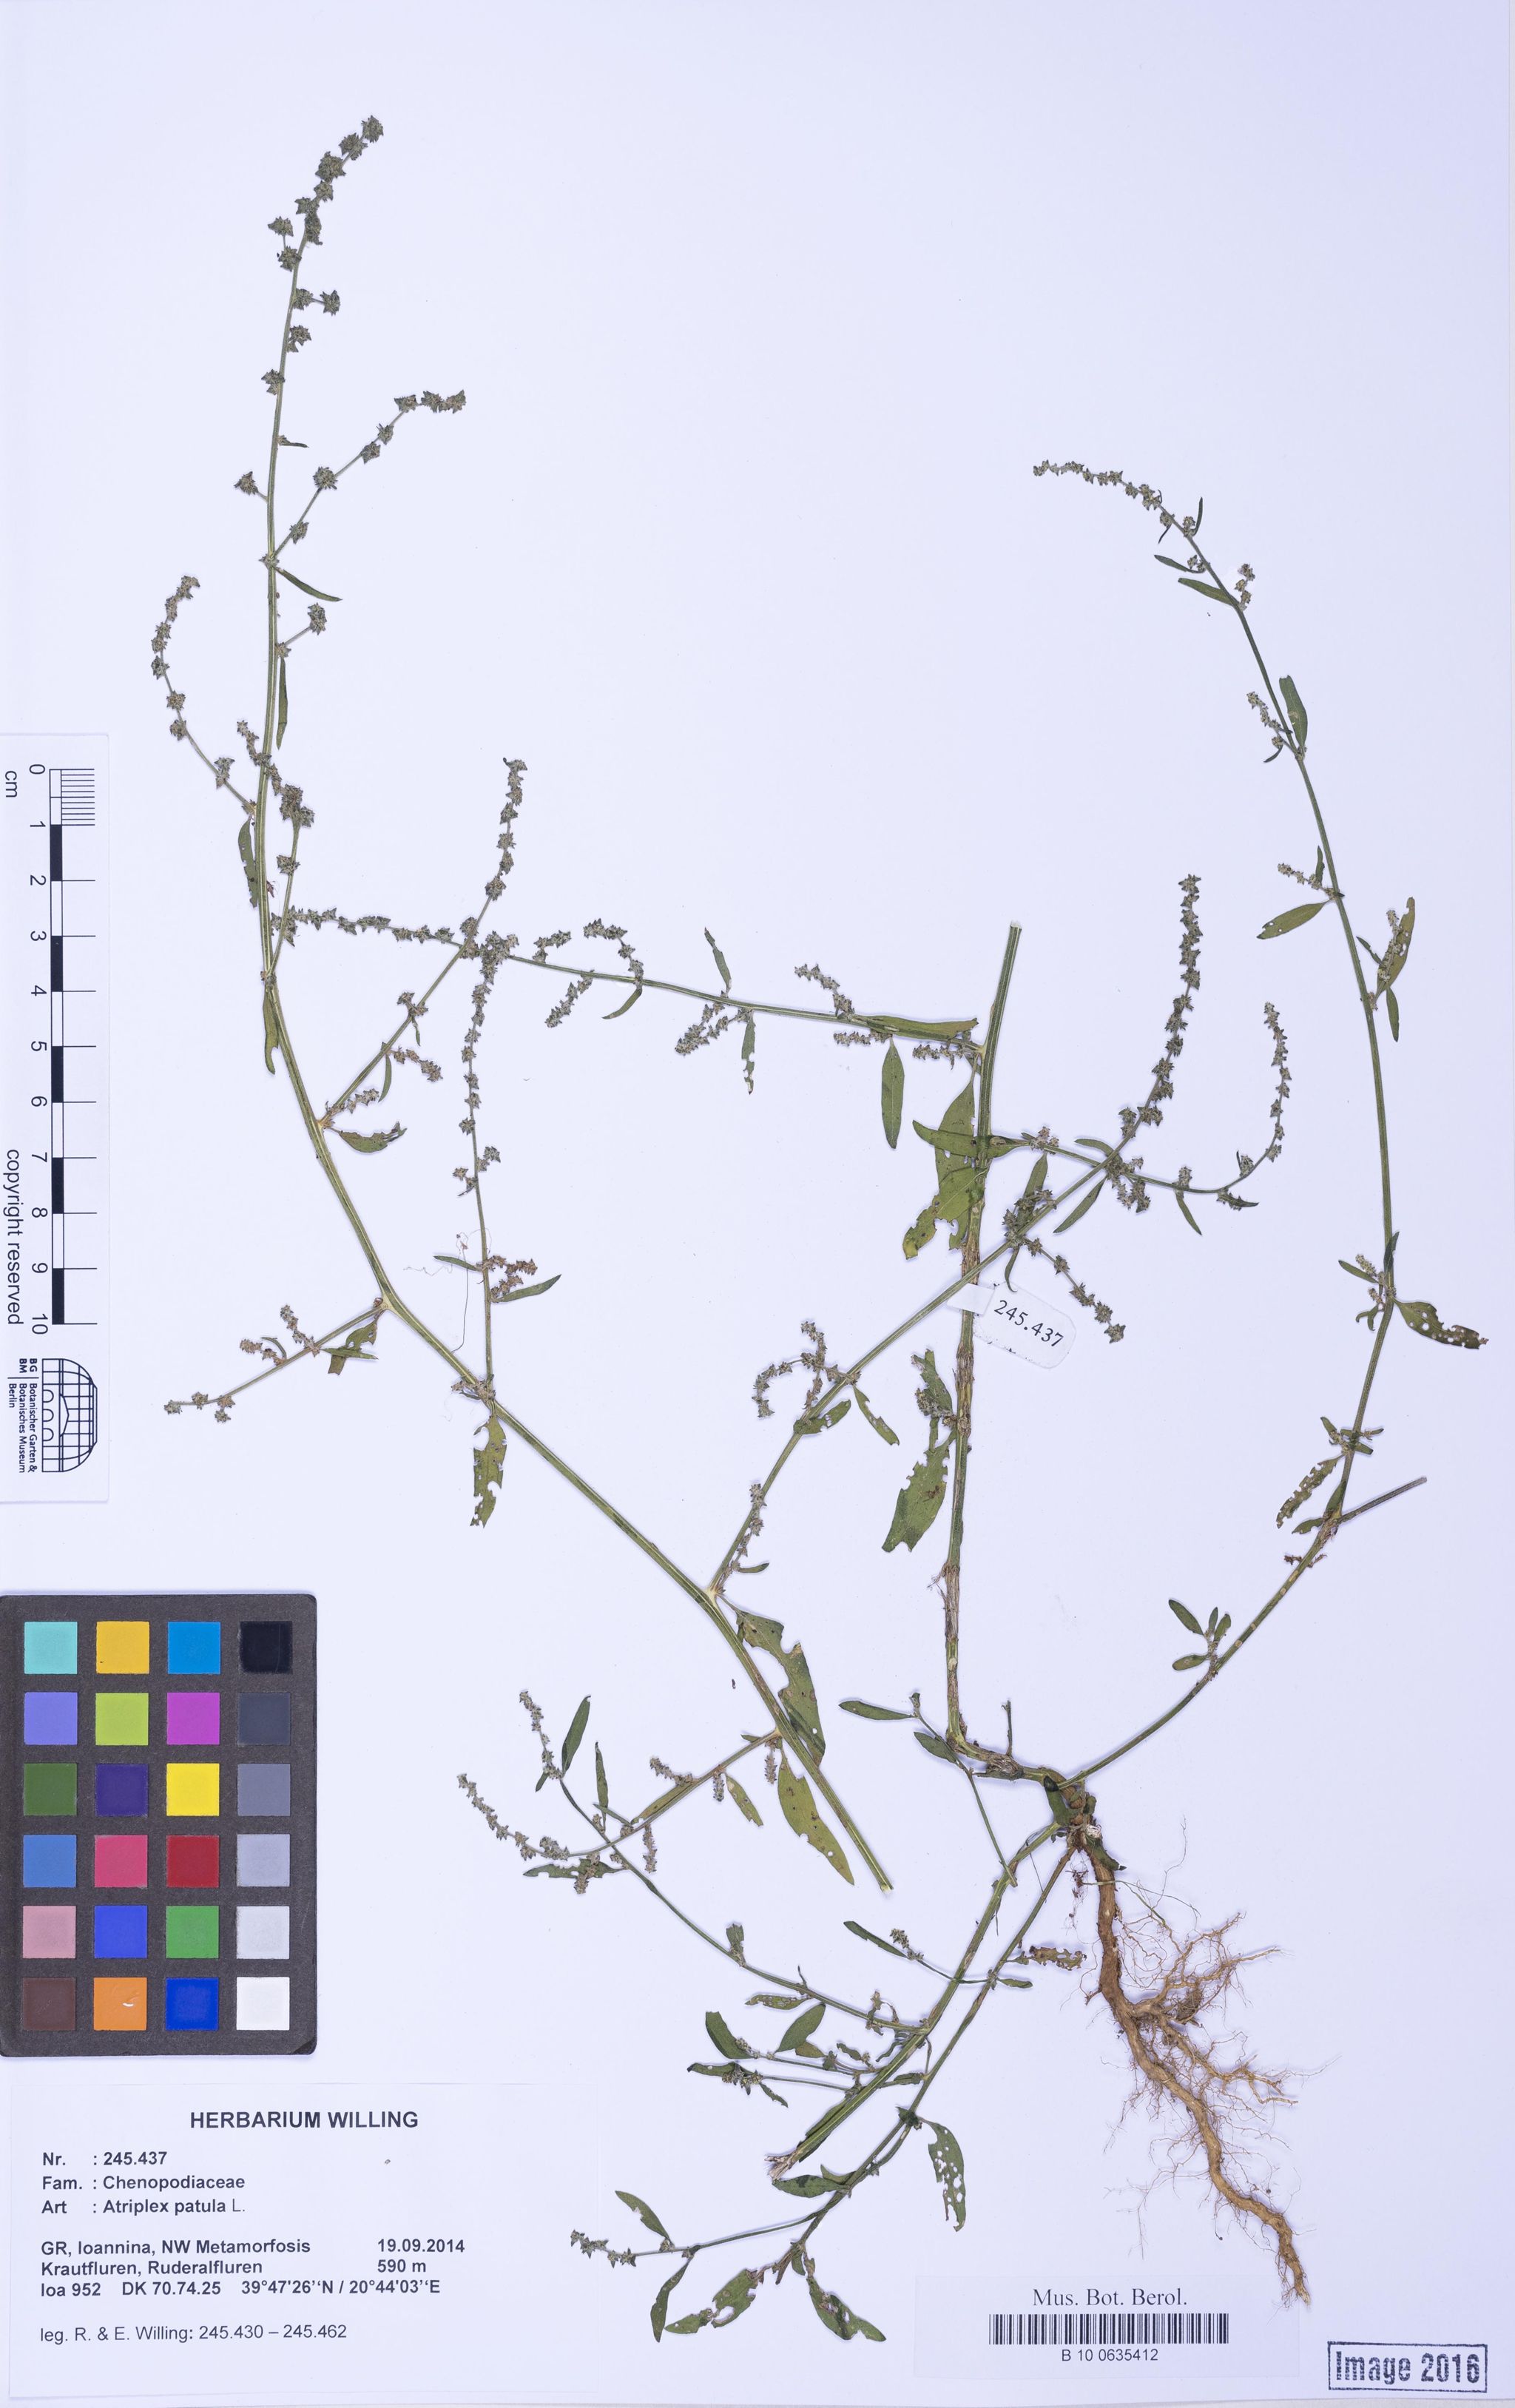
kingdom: Plantae
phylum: Tracheophyta
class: Magnoliopsida
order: Caryophyllales
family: Amaranthaceae
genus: Atriplex
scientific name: Atriplex patula
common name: Common orache
